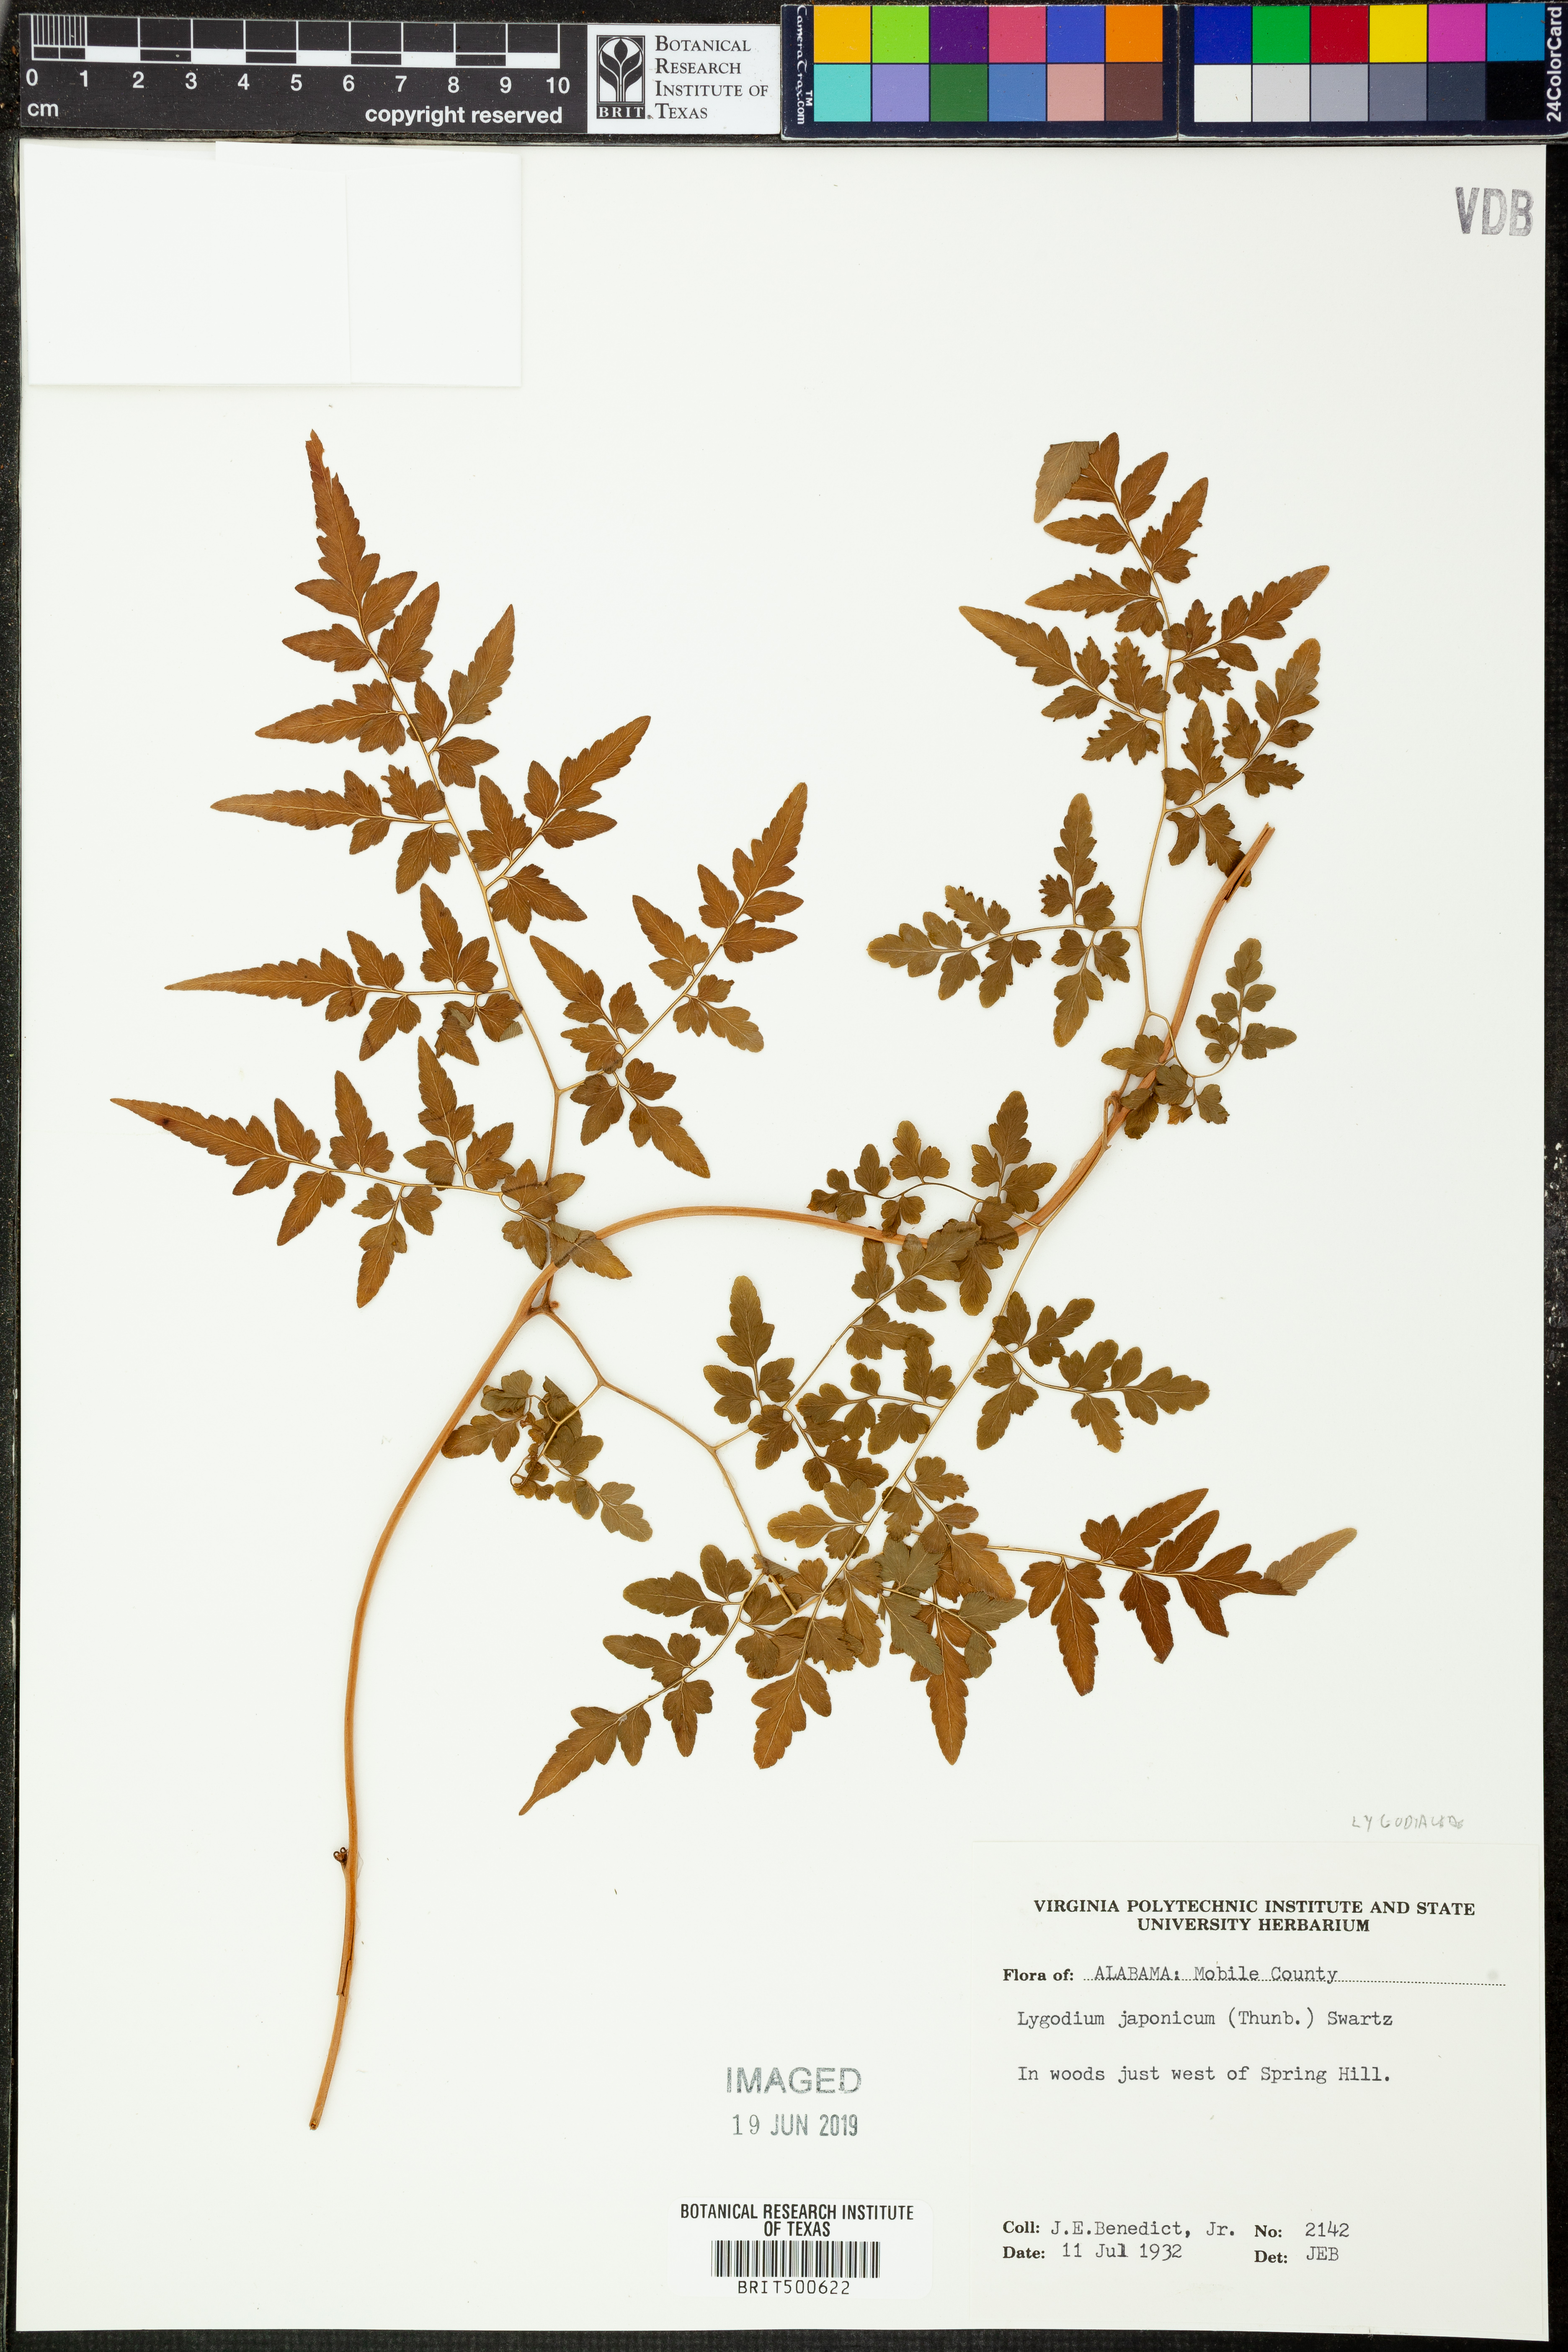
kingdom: Plantae
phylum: Tracheophyta
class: Polypodiopsida
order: Schizaeales
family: Lygodiaceae
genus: Lygodium
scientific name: Lygodium japonicum
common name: Japanese climbing fern
